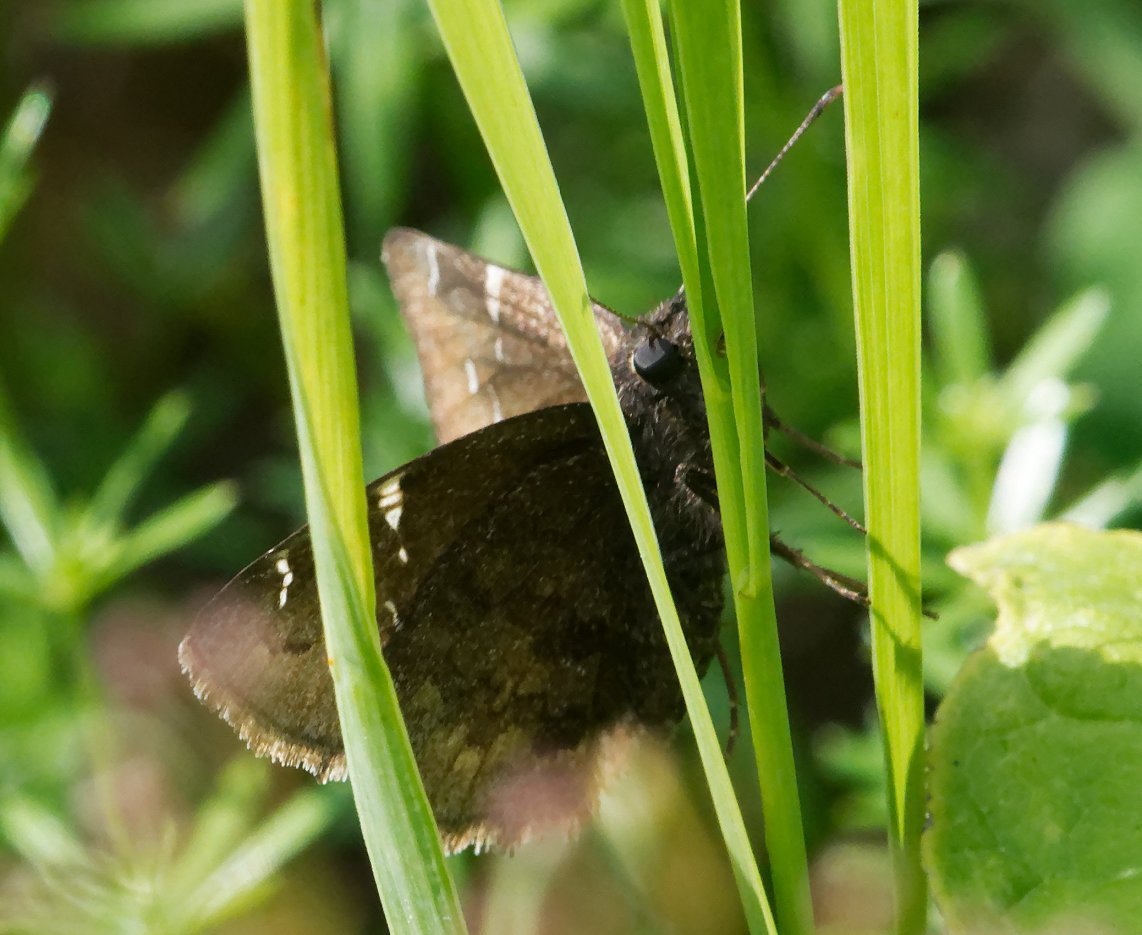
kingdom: Animalia
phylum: Arthropoda
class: Insecta
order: Lepidoptera
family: Hesperiidae
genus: Autochton
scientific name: Autochton
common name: Northern Cloudywing
